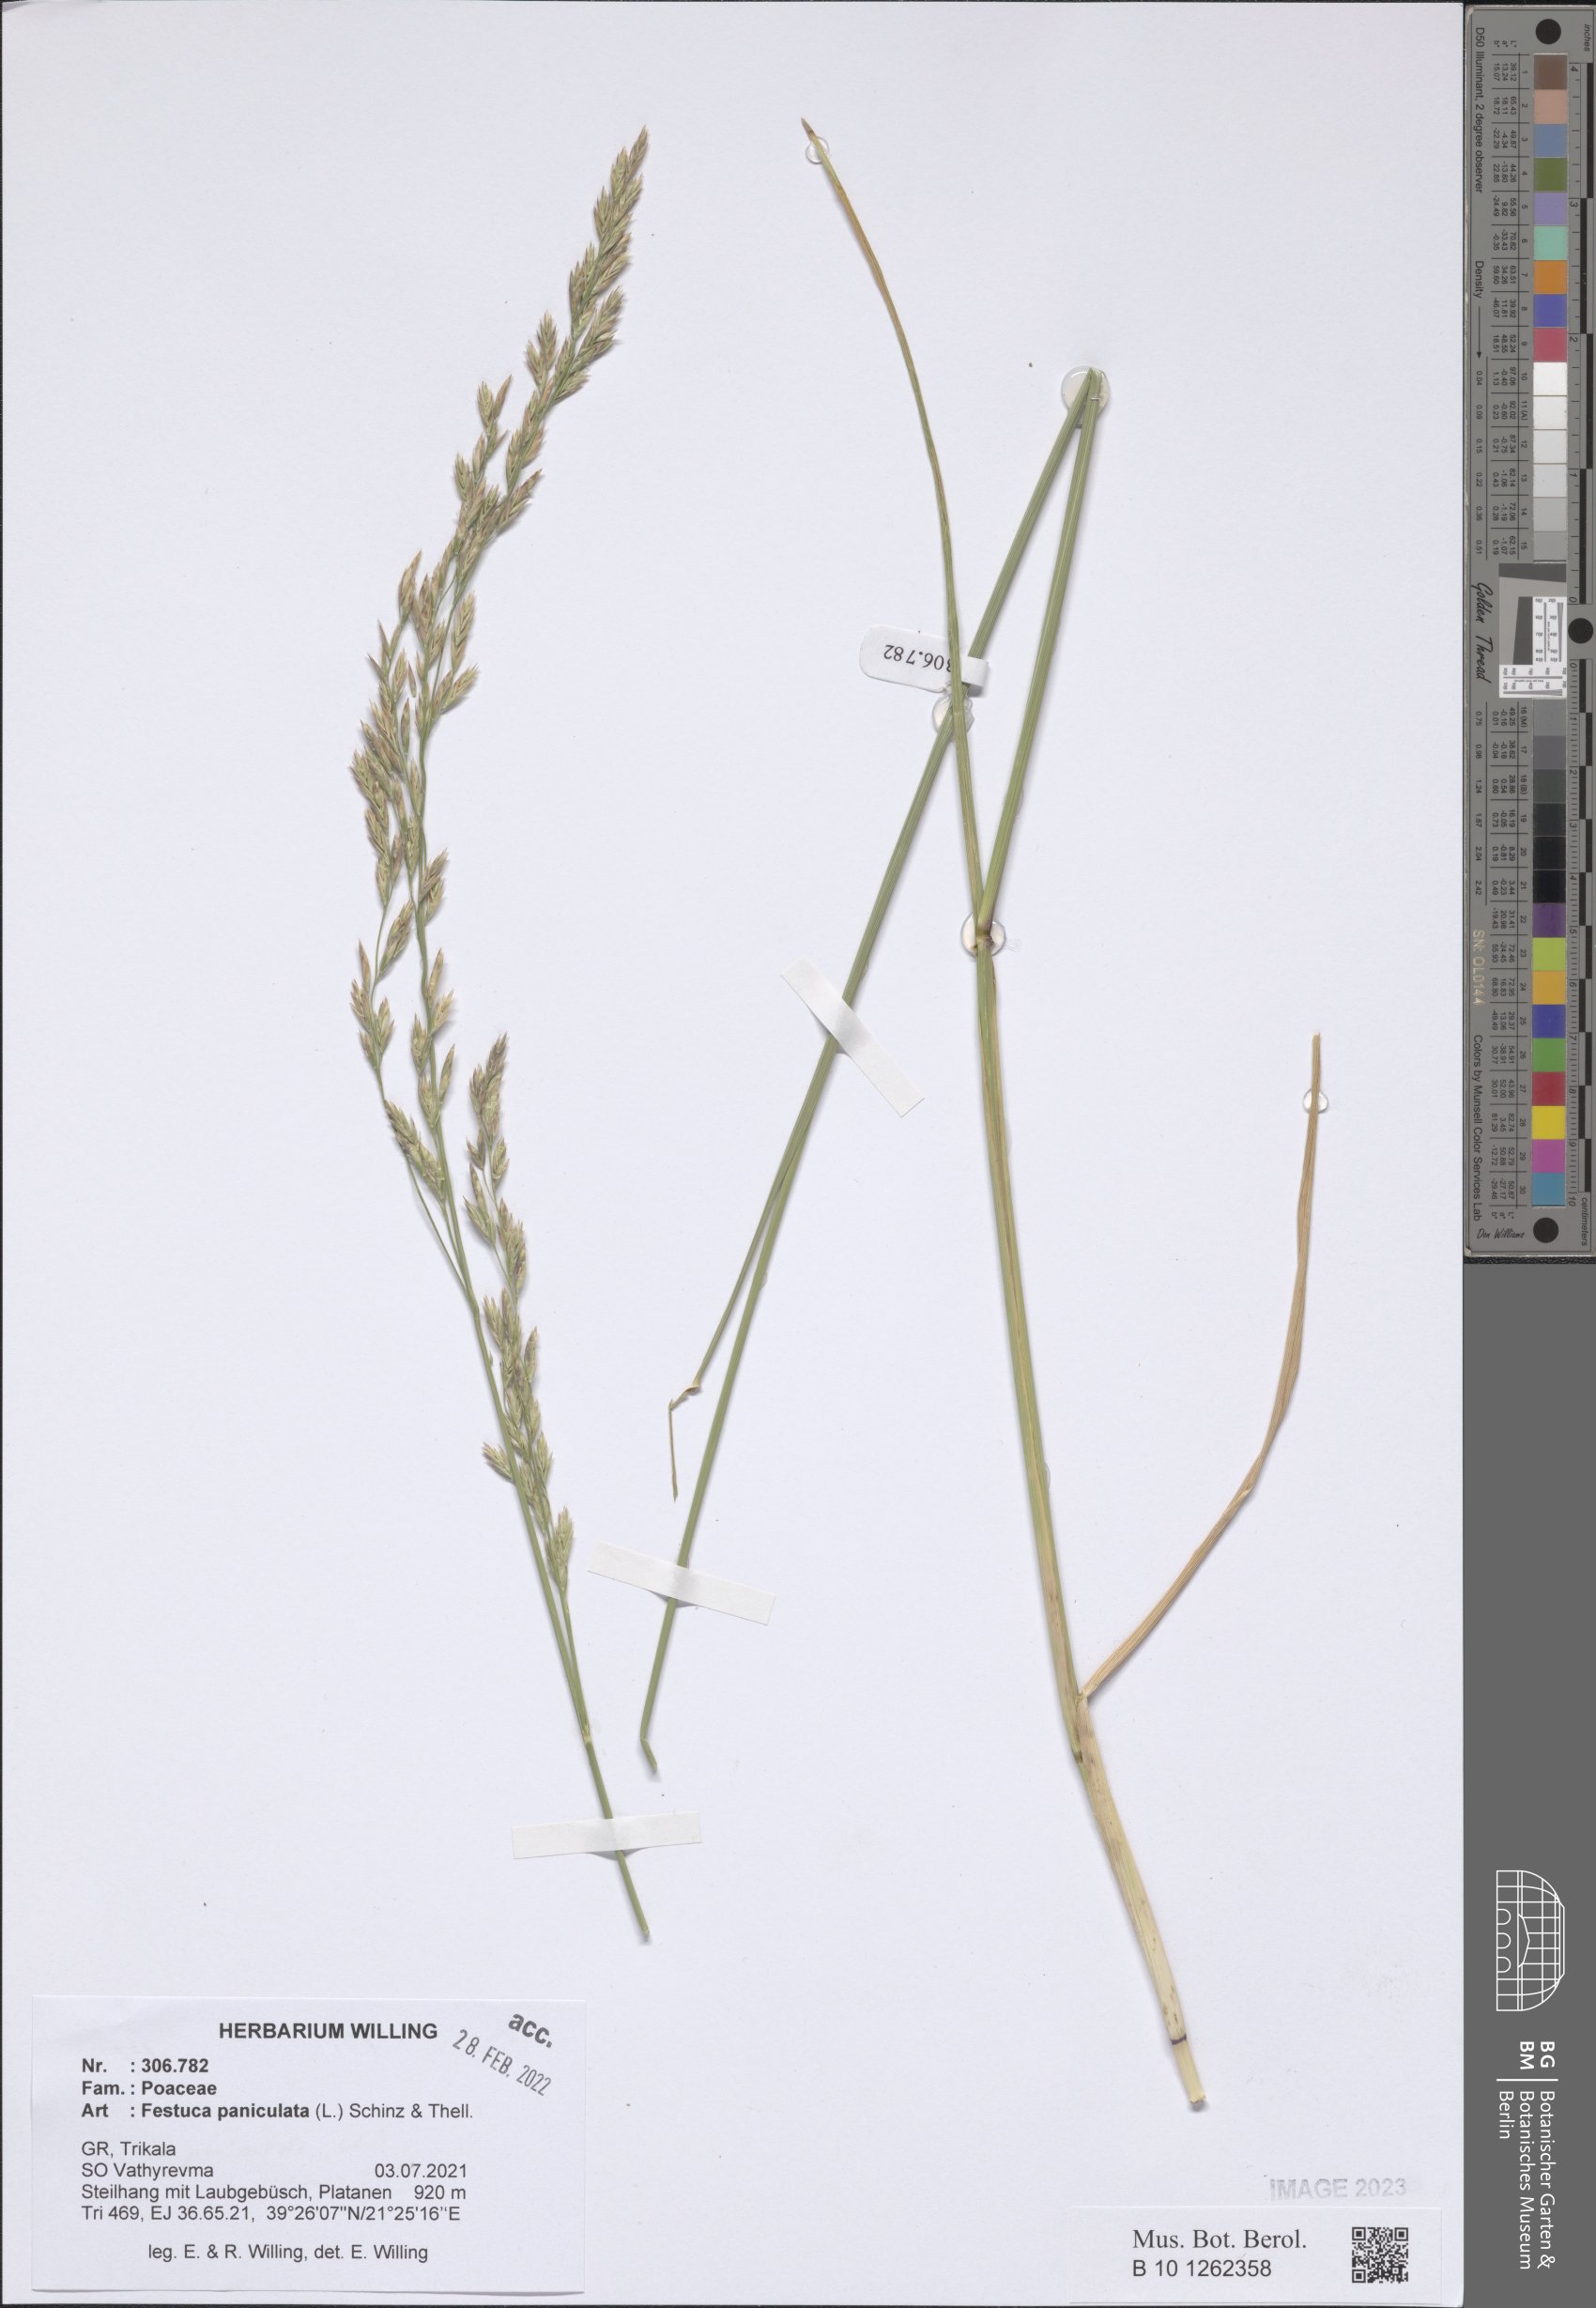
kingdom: Plantae
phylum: Tracheophyta
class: Liliopsida
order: Poales
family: Poaceae
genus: Patzkea
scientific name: Patzkea paniculata
